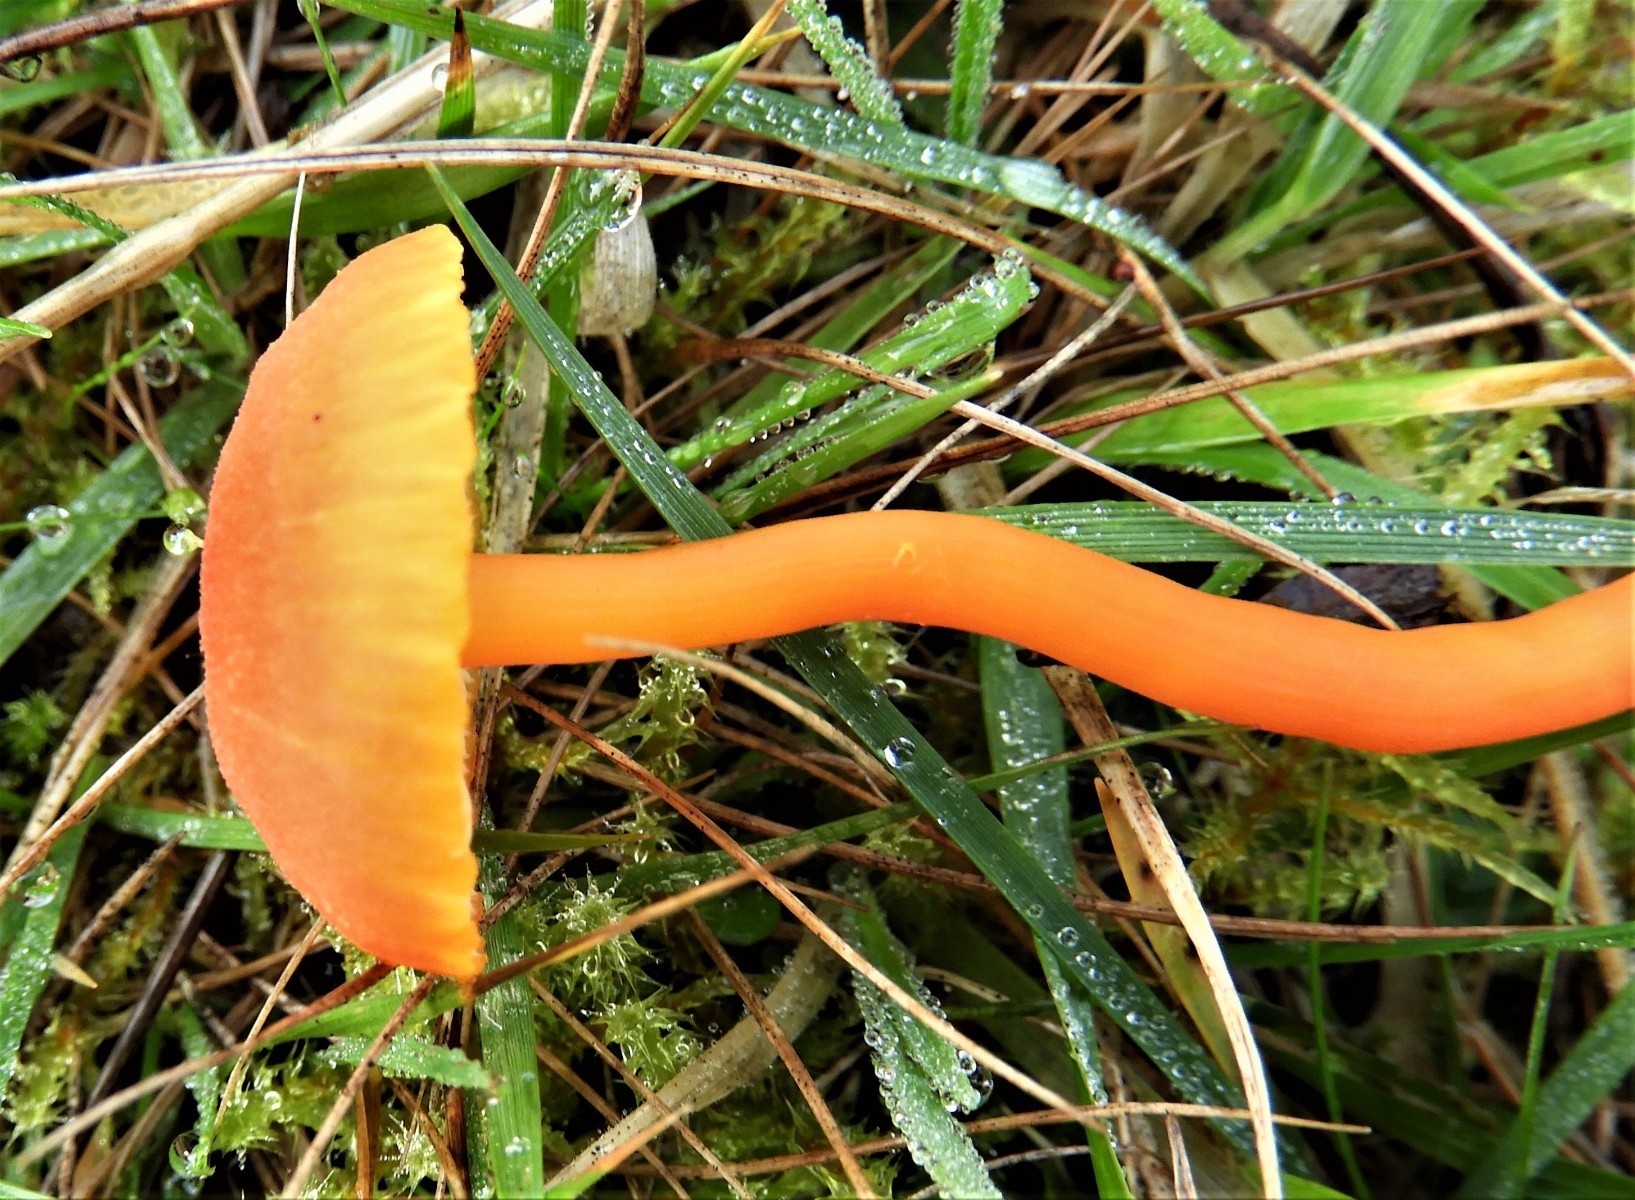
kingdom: Fungi
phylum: Basidiomycota
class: Agaricomycetes
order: Agaricales
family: Hygrophoraceae
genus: Hygrocybe
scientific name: Hygrocybe miniata
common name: mønje-vokshat
